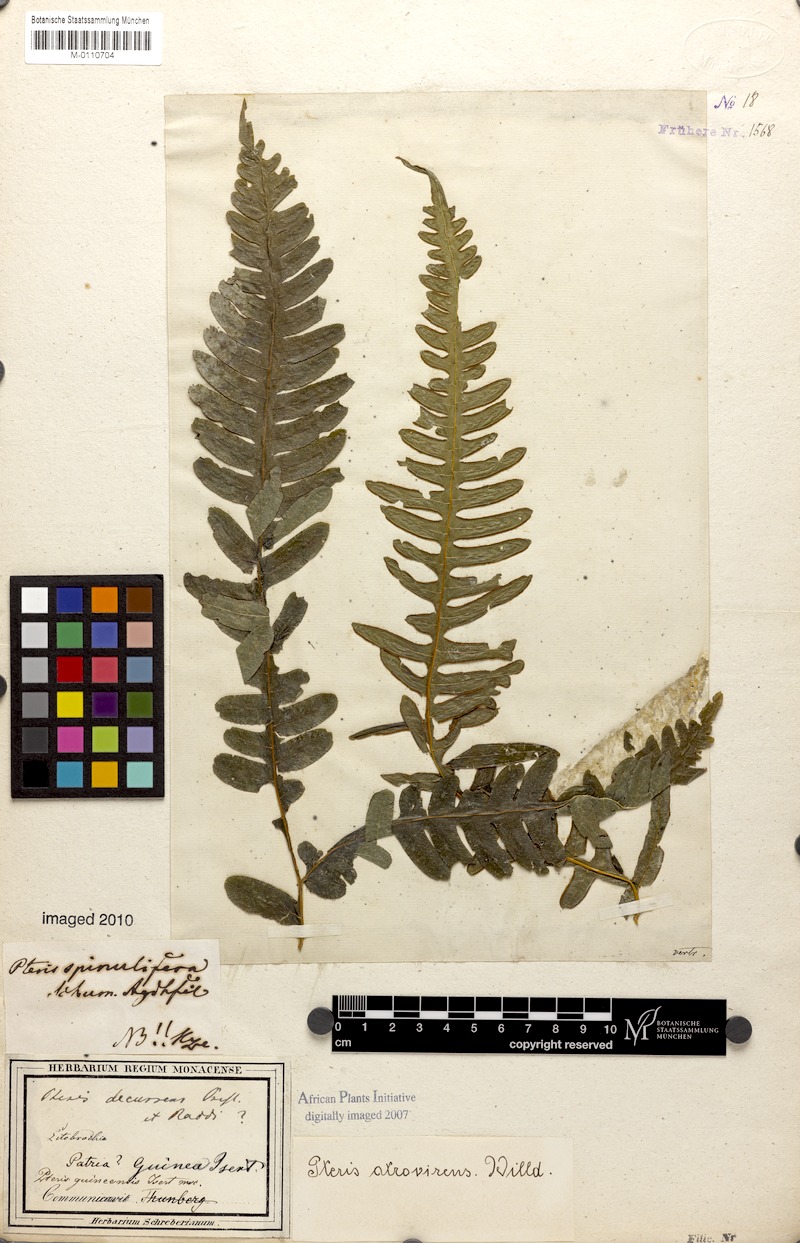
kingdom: Plantae
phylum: Tracheophyta
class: Polypodiopsida
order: Polypodiales
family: Pteridaceae
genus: Pteris
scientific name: Pteris atrovirens
